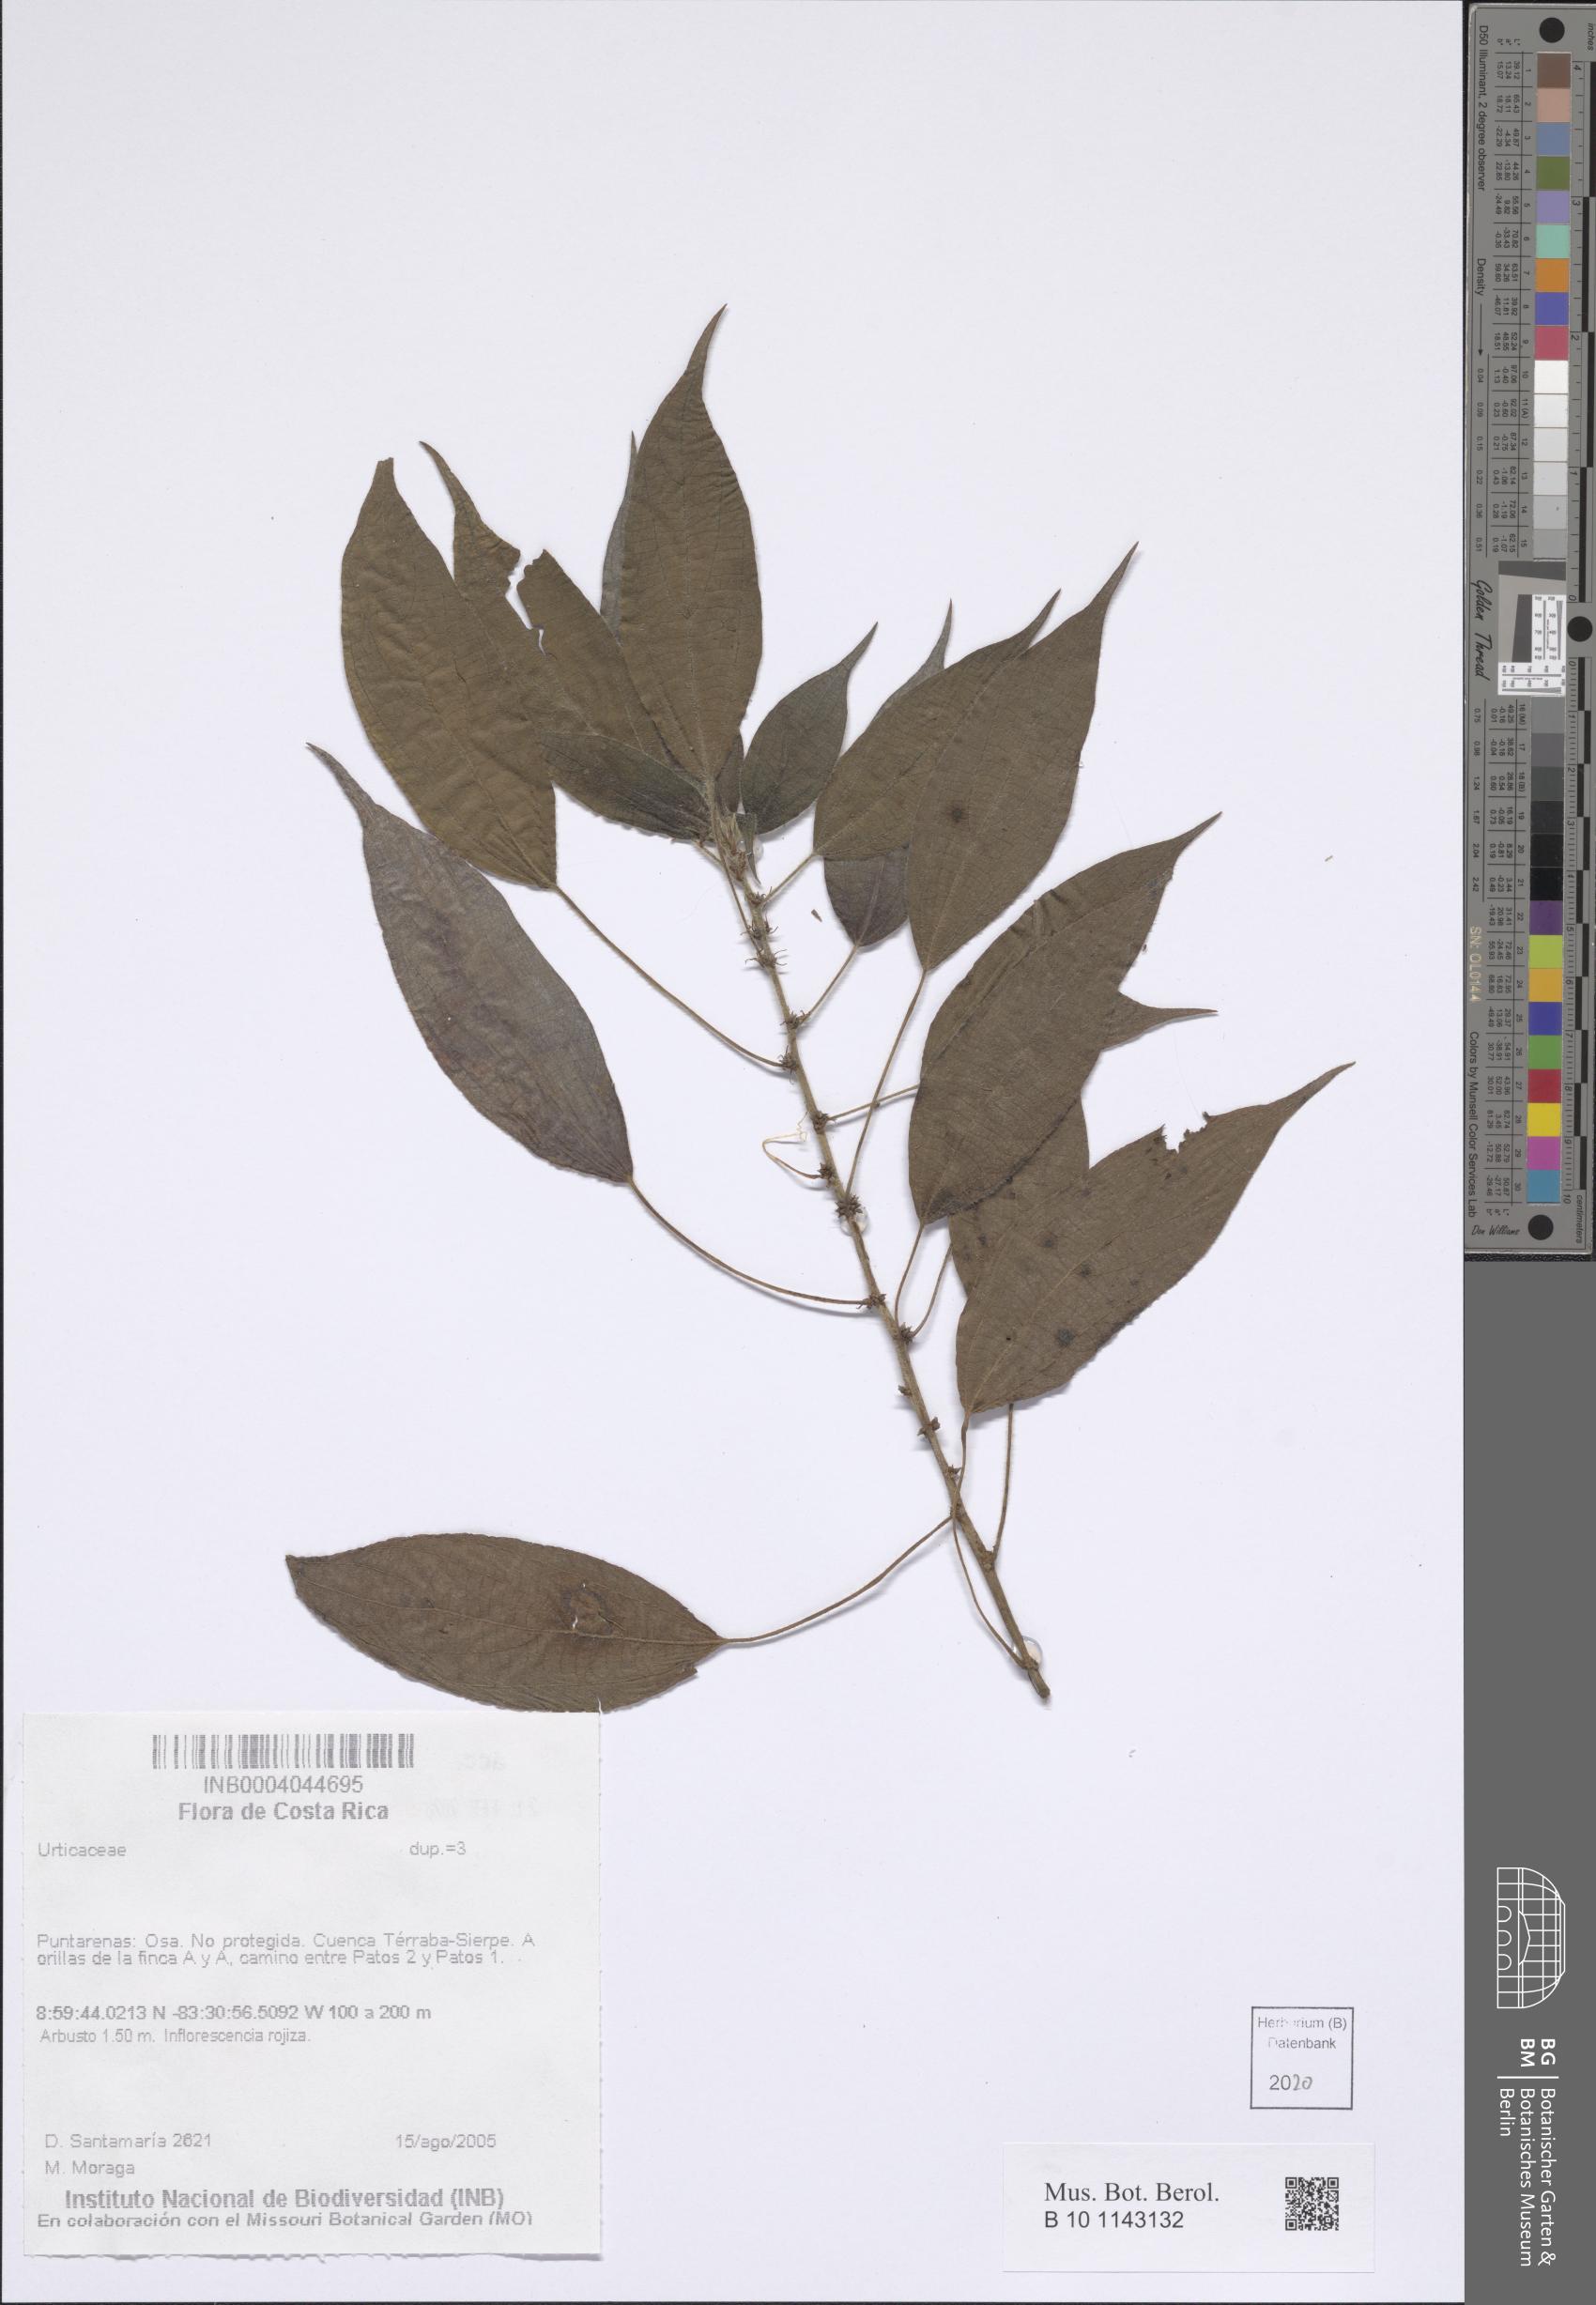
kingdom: Plantae
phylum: Tracheophyta
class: Magnoliopsida
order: Rosales
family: Urticaceae
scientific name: Urticaceae
